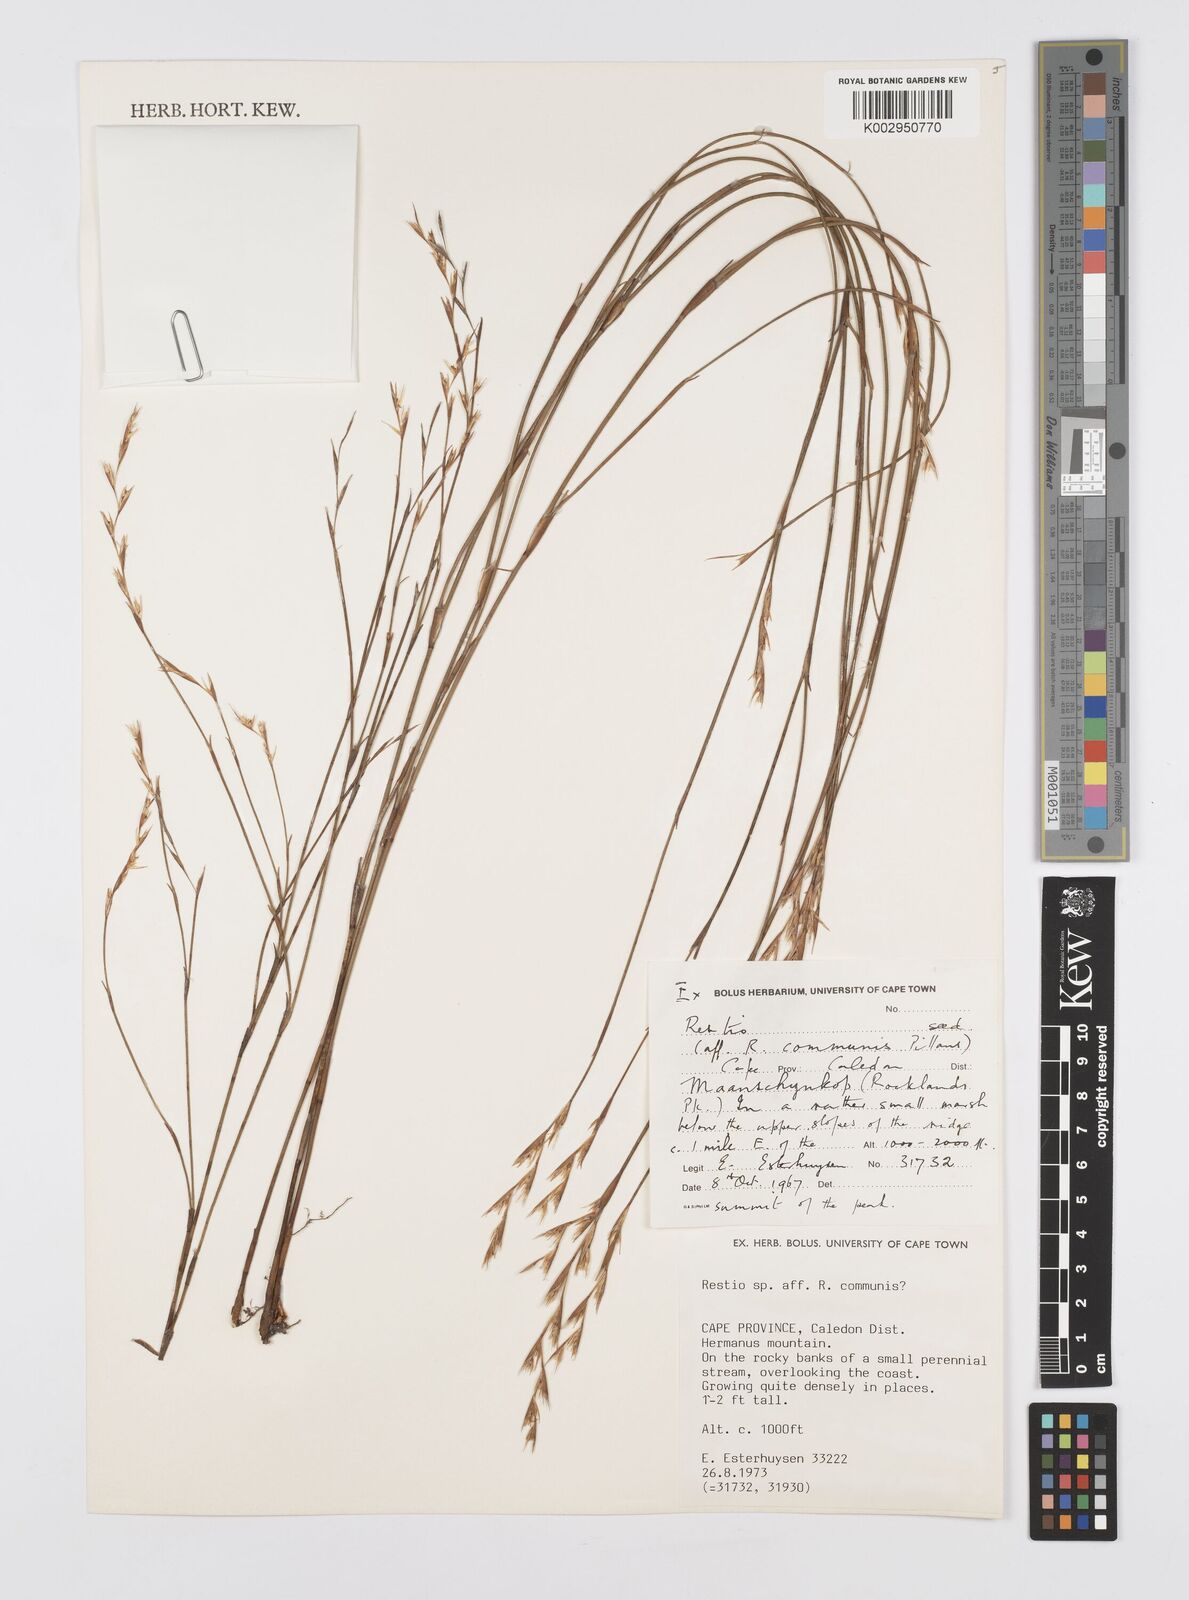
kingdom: Plantae
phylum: Tracheophyta
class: Liliopsida
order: Poales
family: Restionaceae
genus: Restio
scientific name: Restio communis
